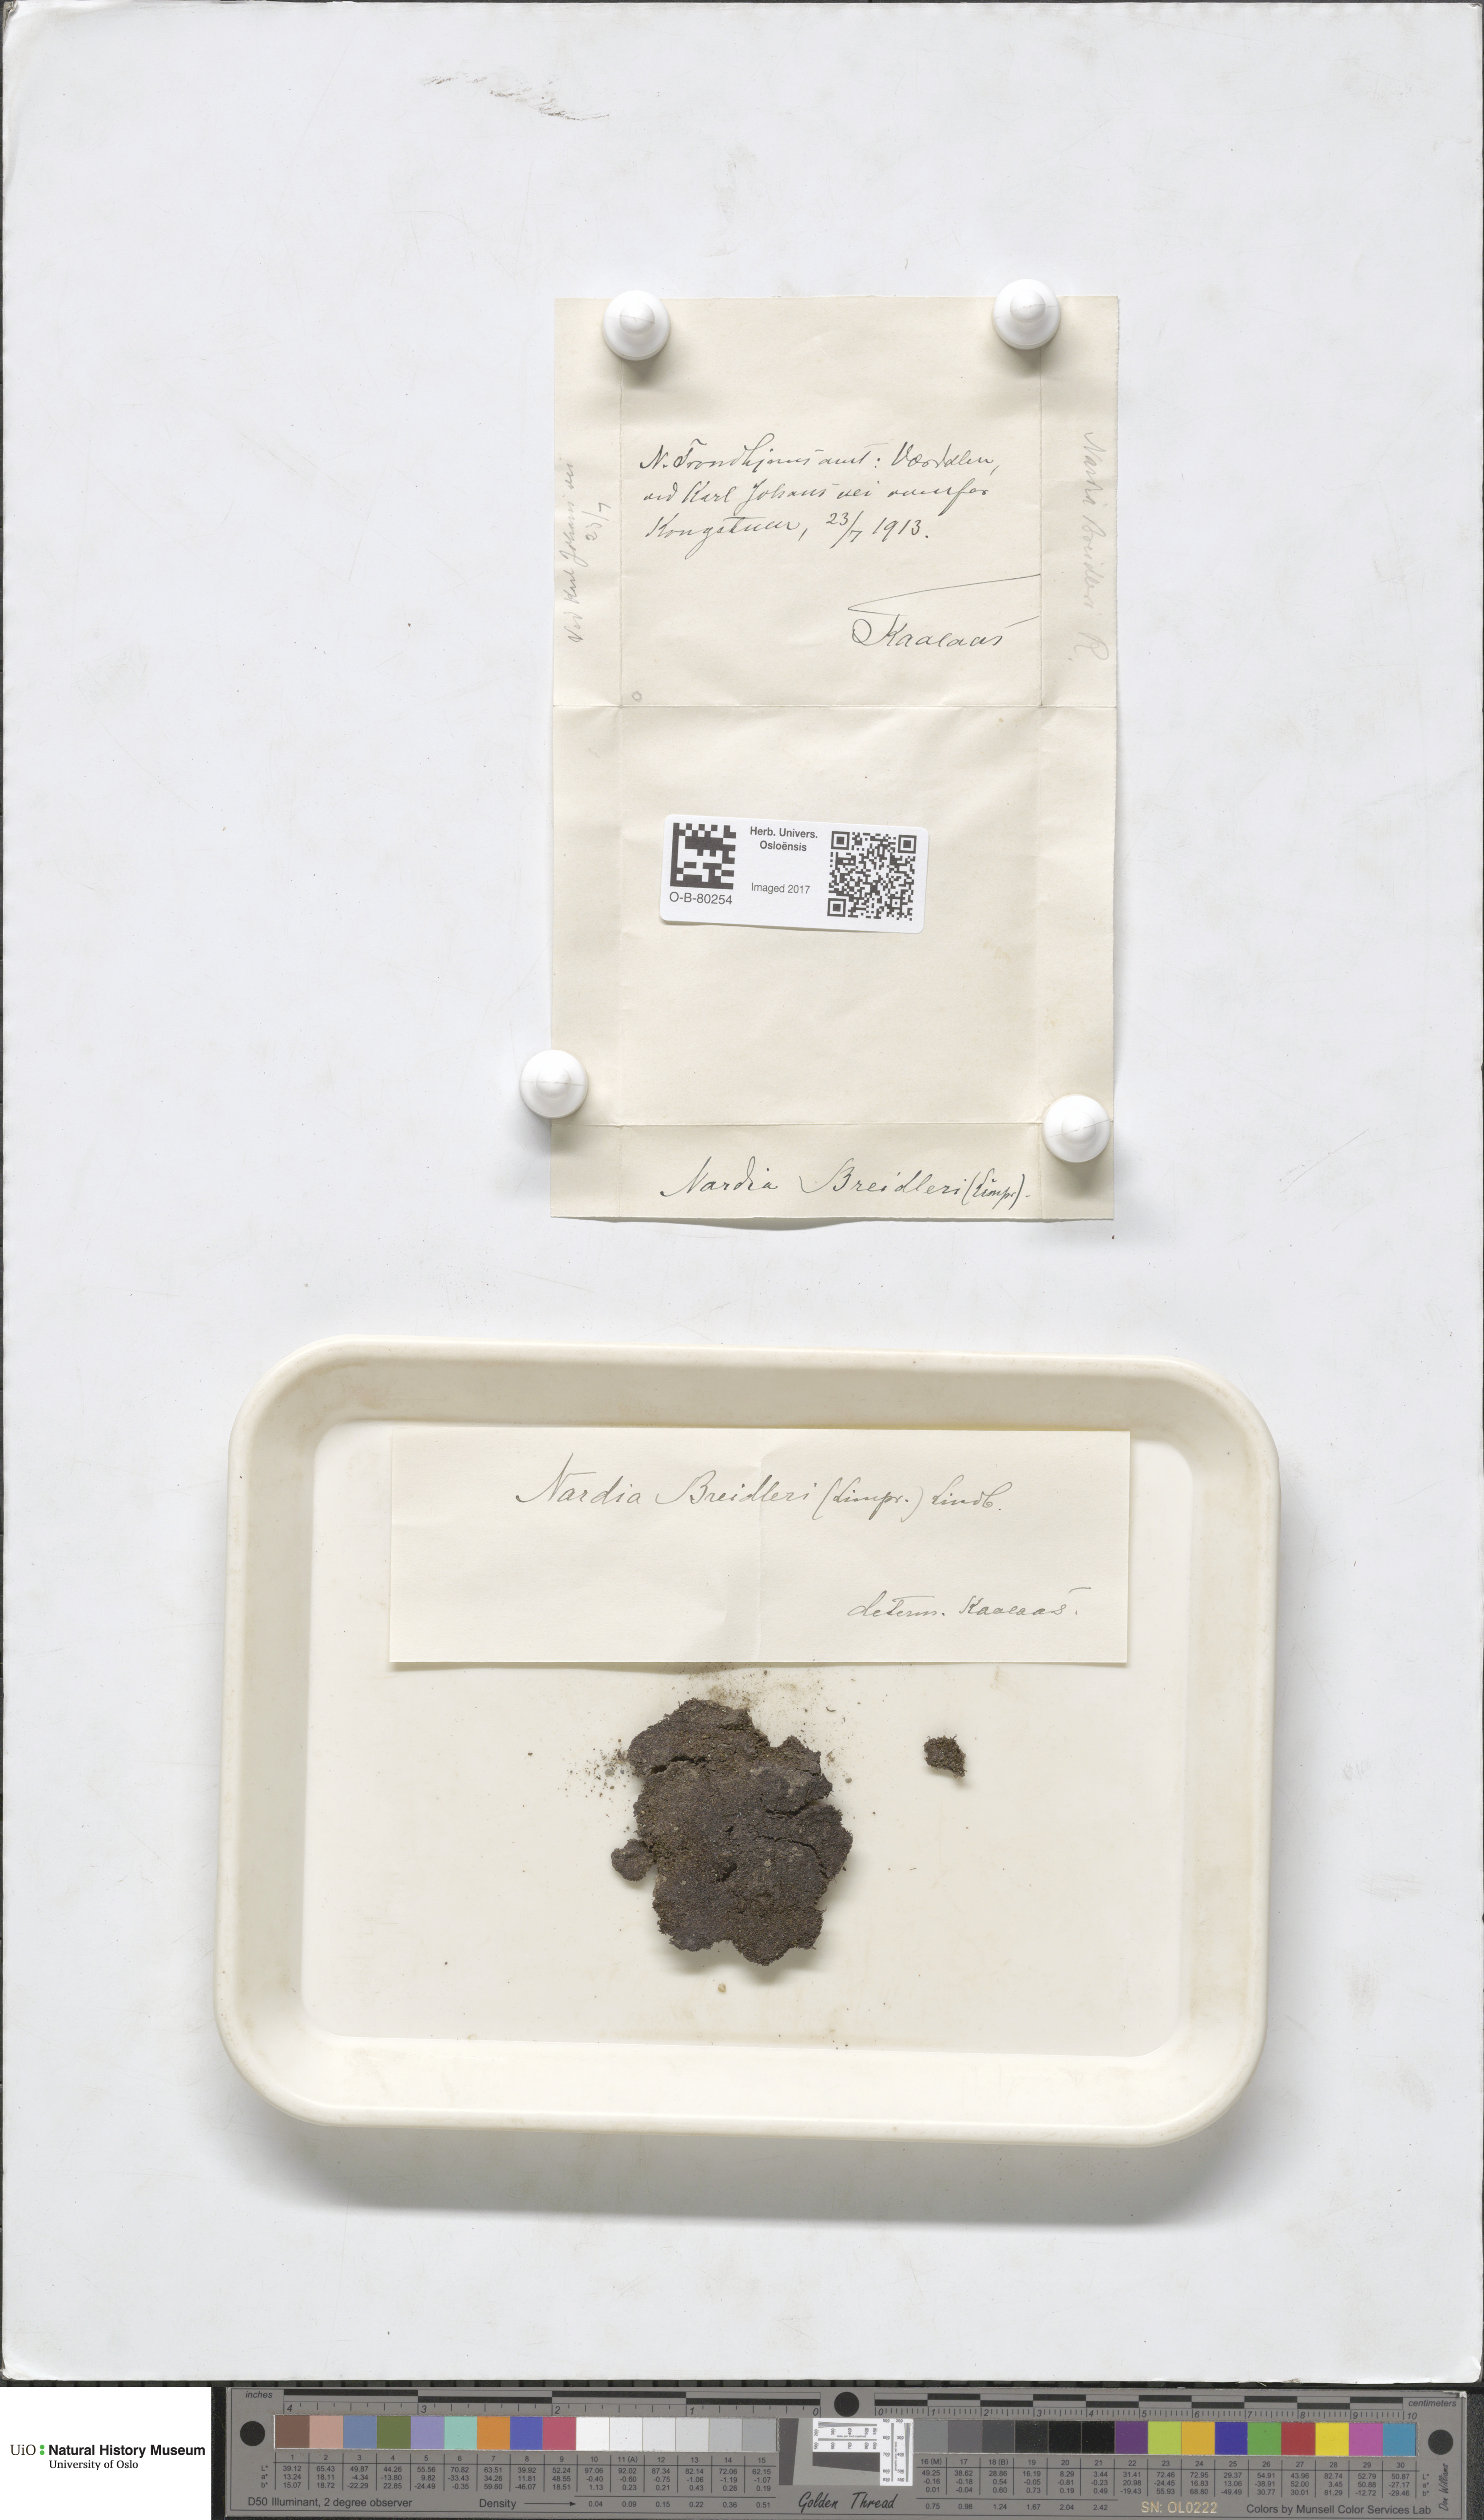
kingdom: Plantae
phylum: Marchantiophyta
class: Jungermanniopsida
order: Jungermanniales
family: Gymnomitriaceae
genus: Nardia
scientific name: Nardia breidleri
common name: Book flapwort
